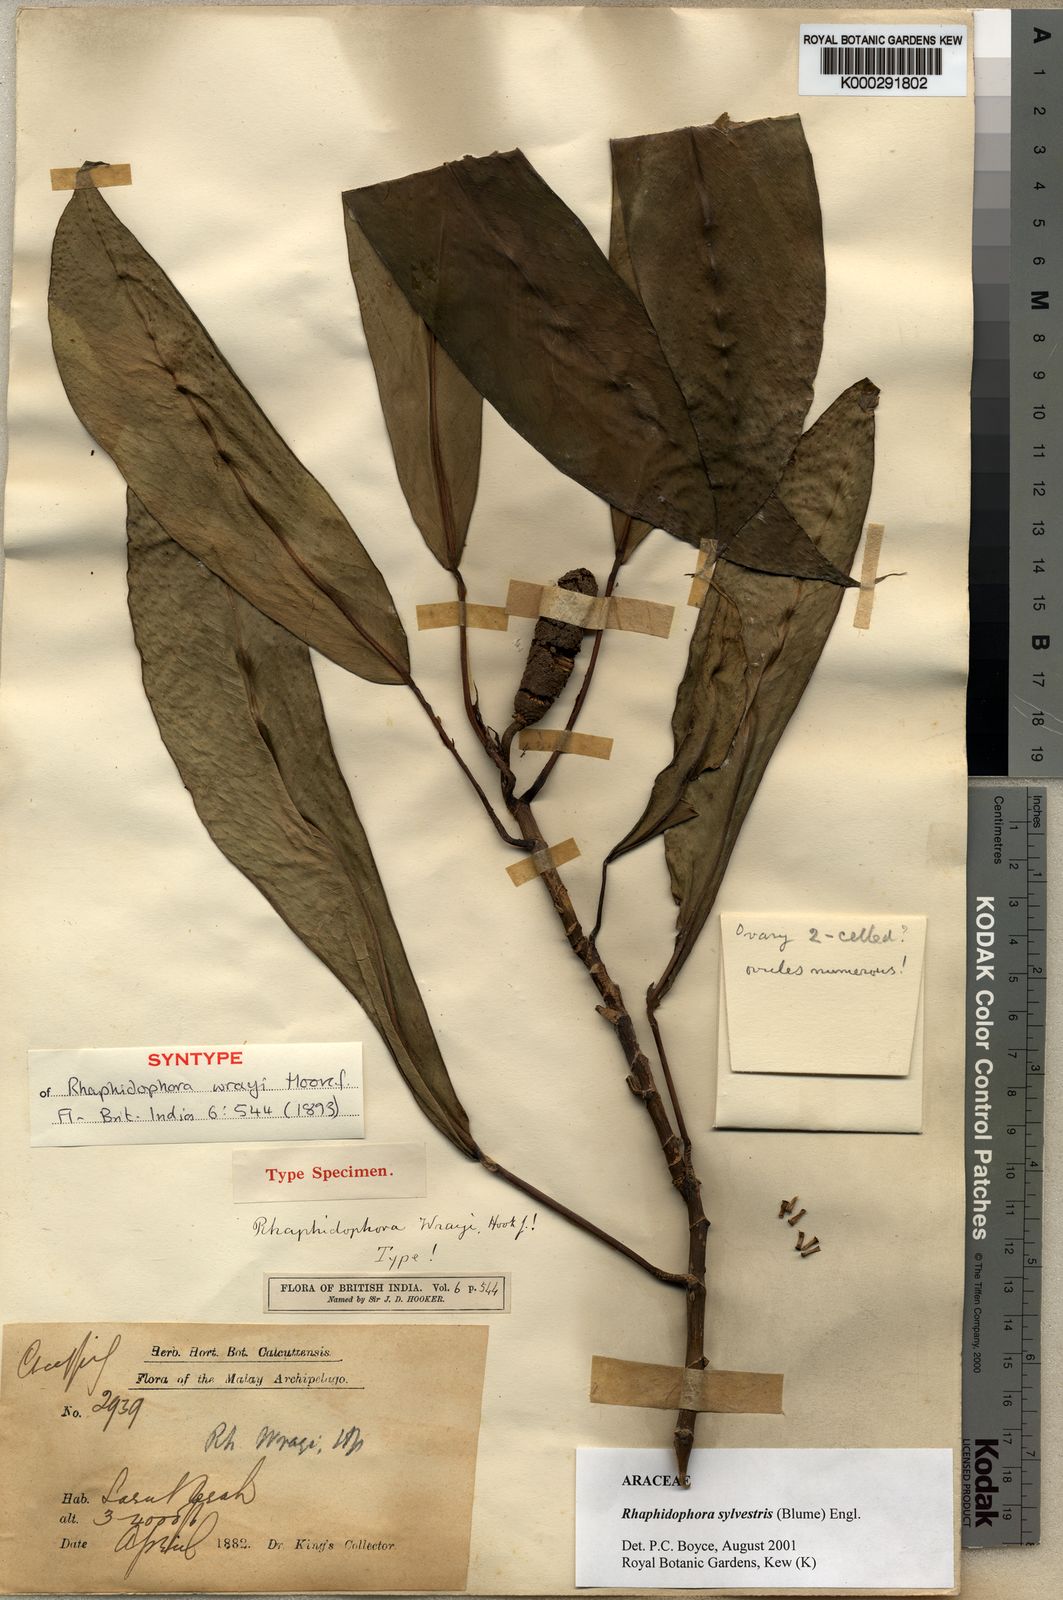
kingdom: Plantae
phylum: Tracheophyta
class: Liliopsida
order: Alismatales
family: Araceae
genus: Rhaphidophora
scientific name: Rhaphidophora sylvestris
